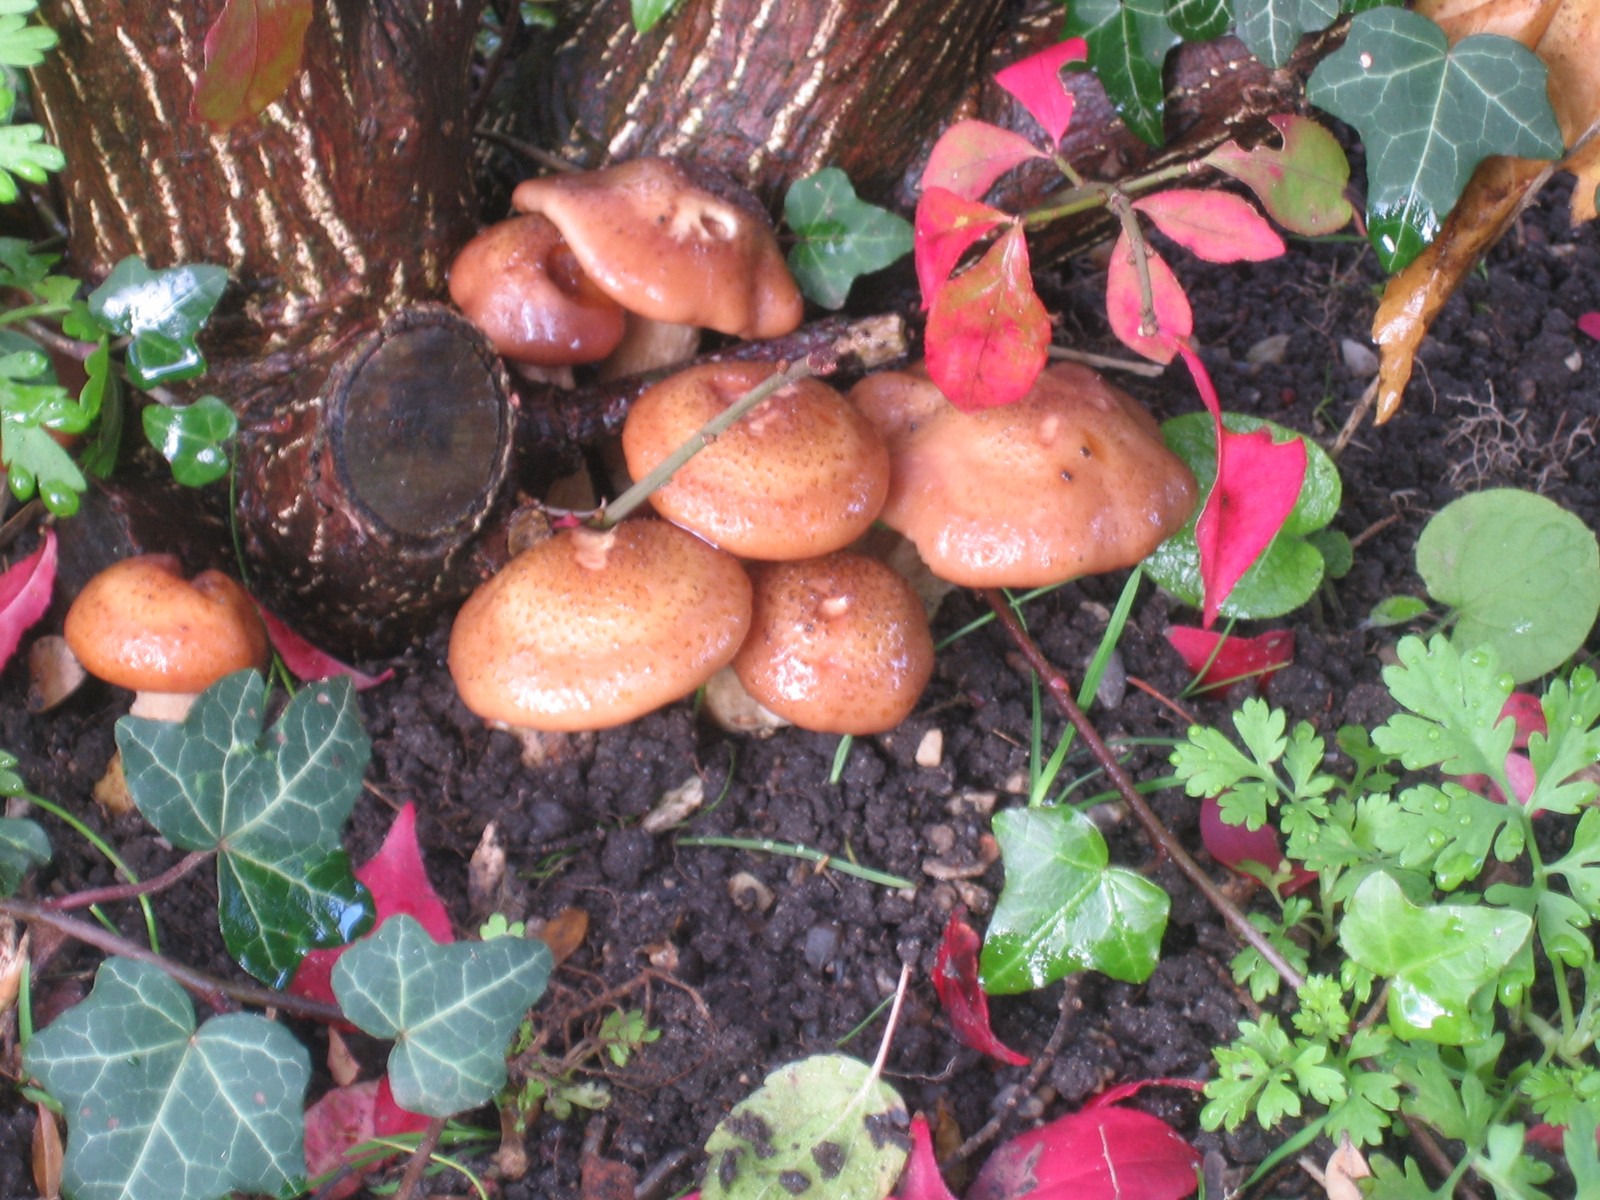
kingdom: Fungi
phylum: Basidiomycota
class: Agaricomycetes
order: Agaricales
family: Physalacriaceae
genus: Armillaria
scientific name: Armillaria lutea
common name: køllestokket honningsvamp
